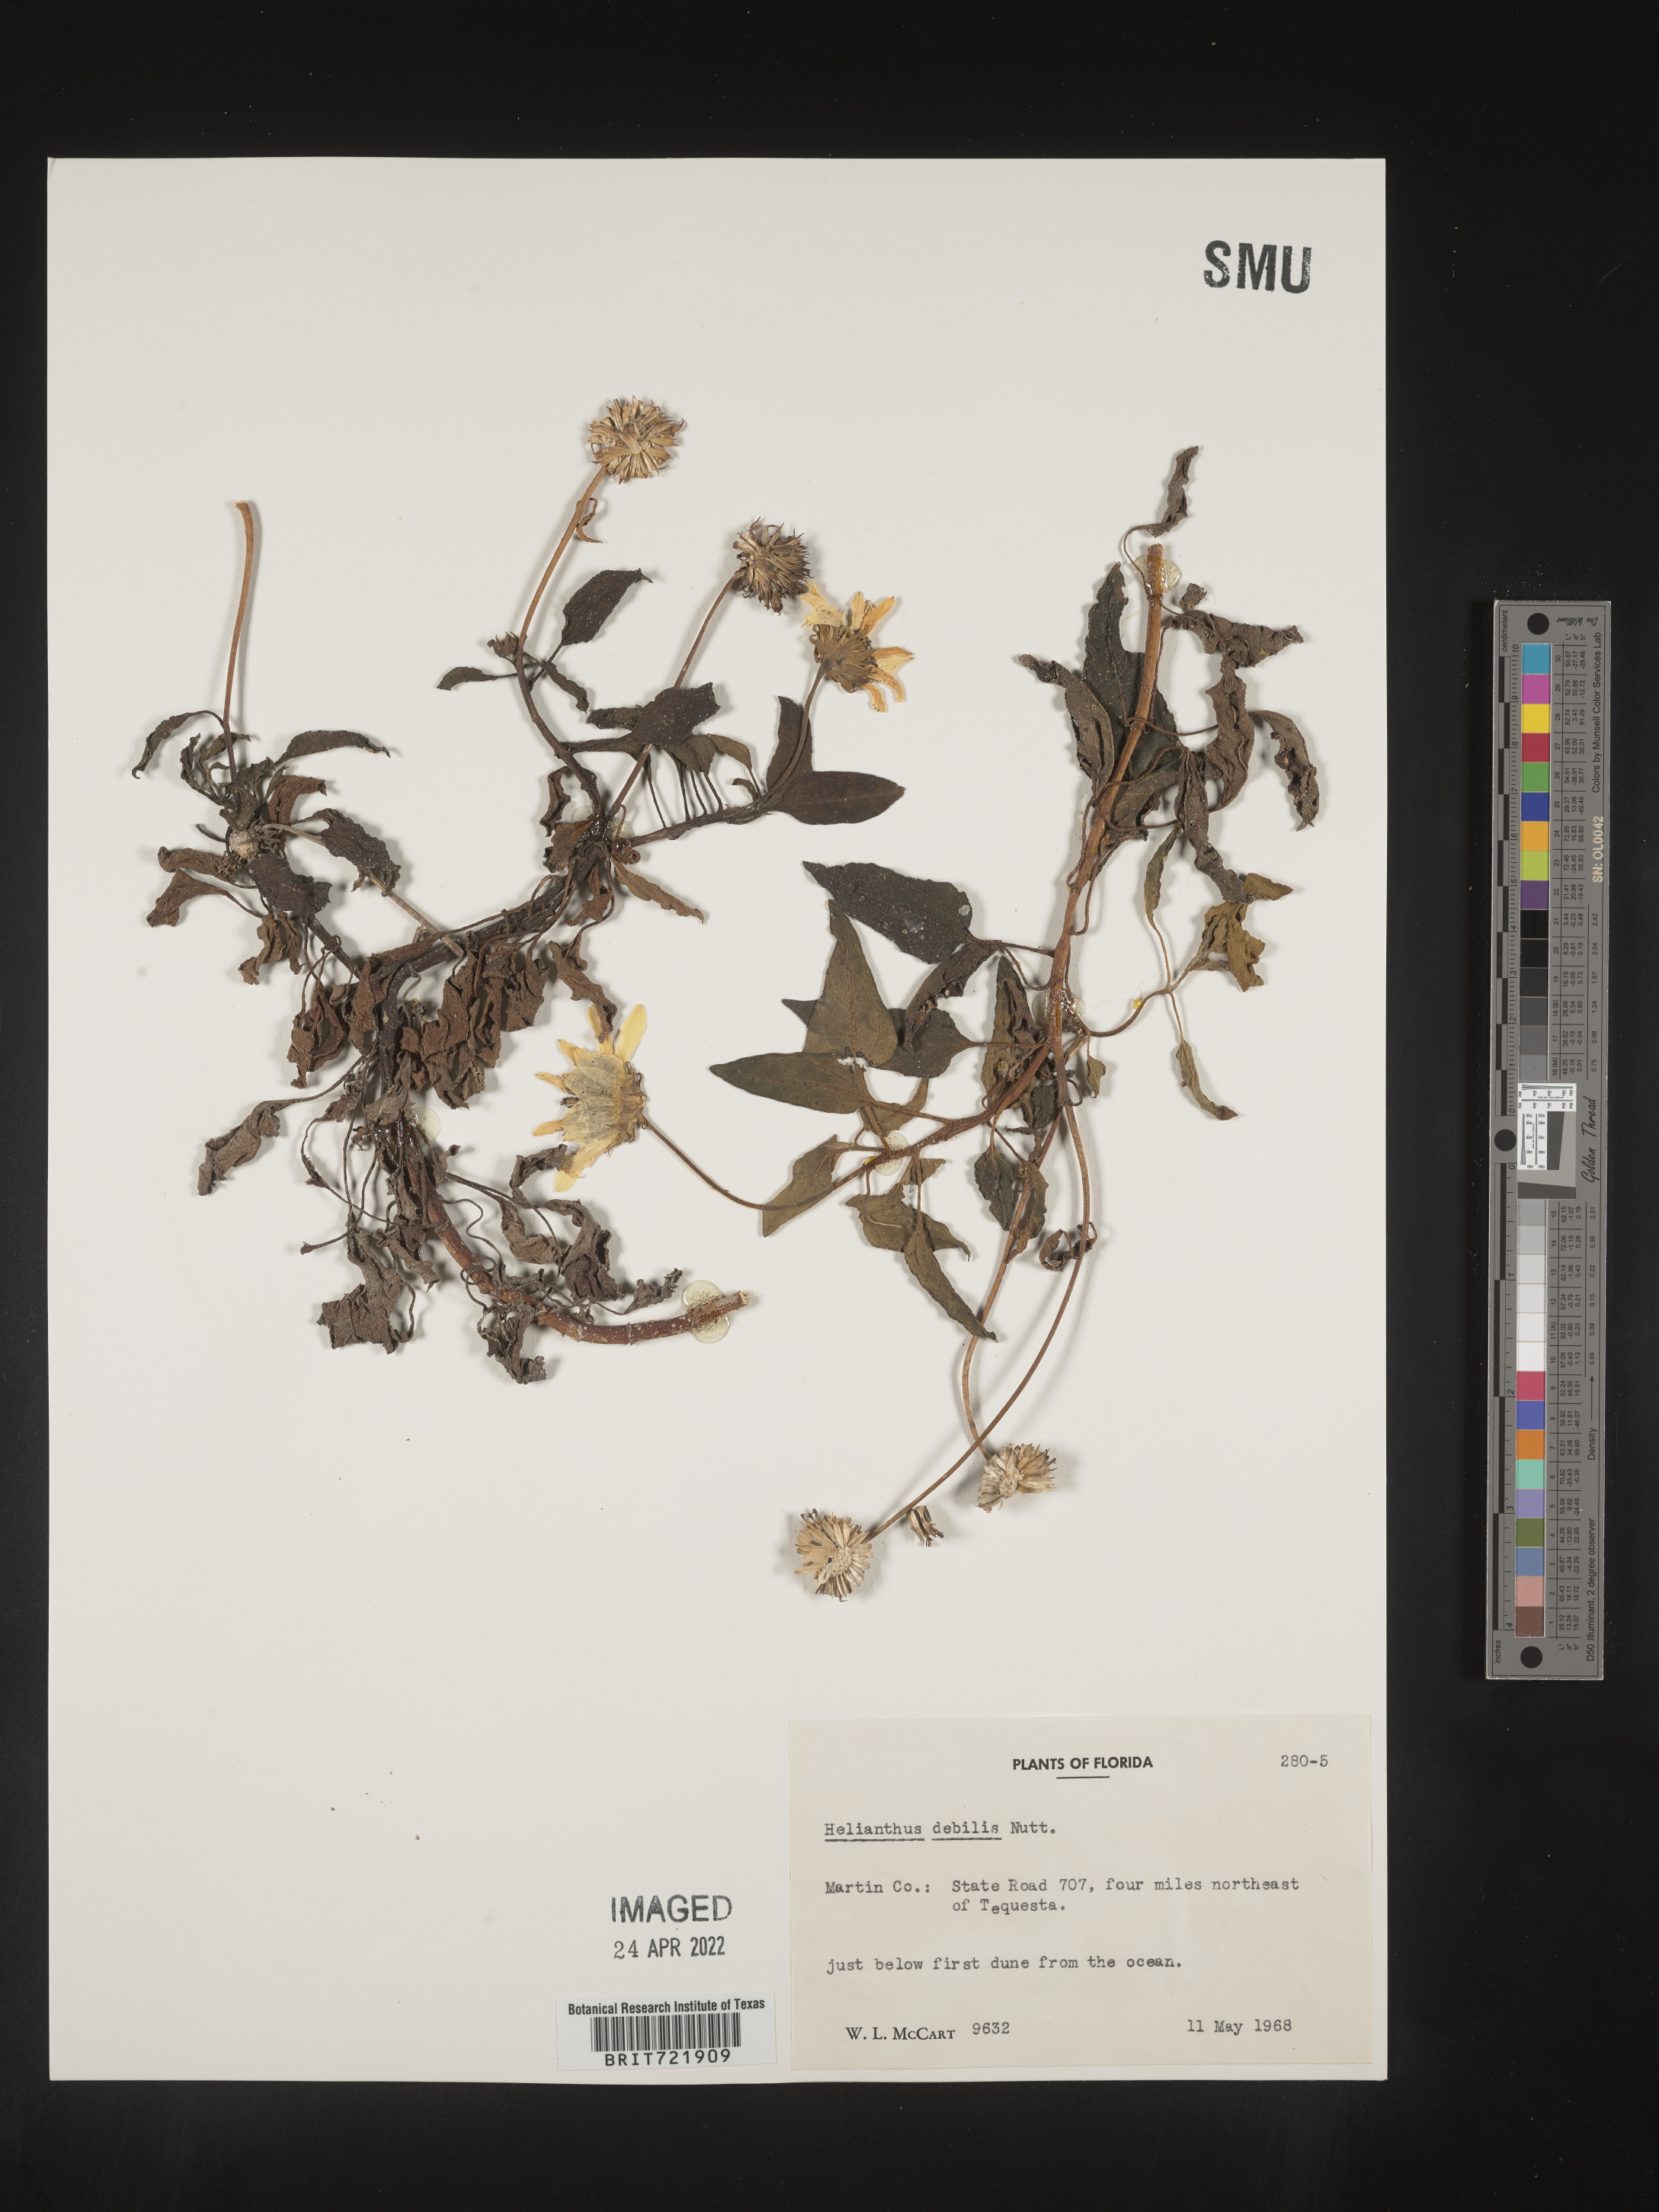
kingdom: Plantae
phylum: Tracheophyta
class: Magnoliopsida
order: Asterales
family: Asteraceae
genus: Helianthus
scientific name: Helianthus debilis
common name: Weak sunflower
